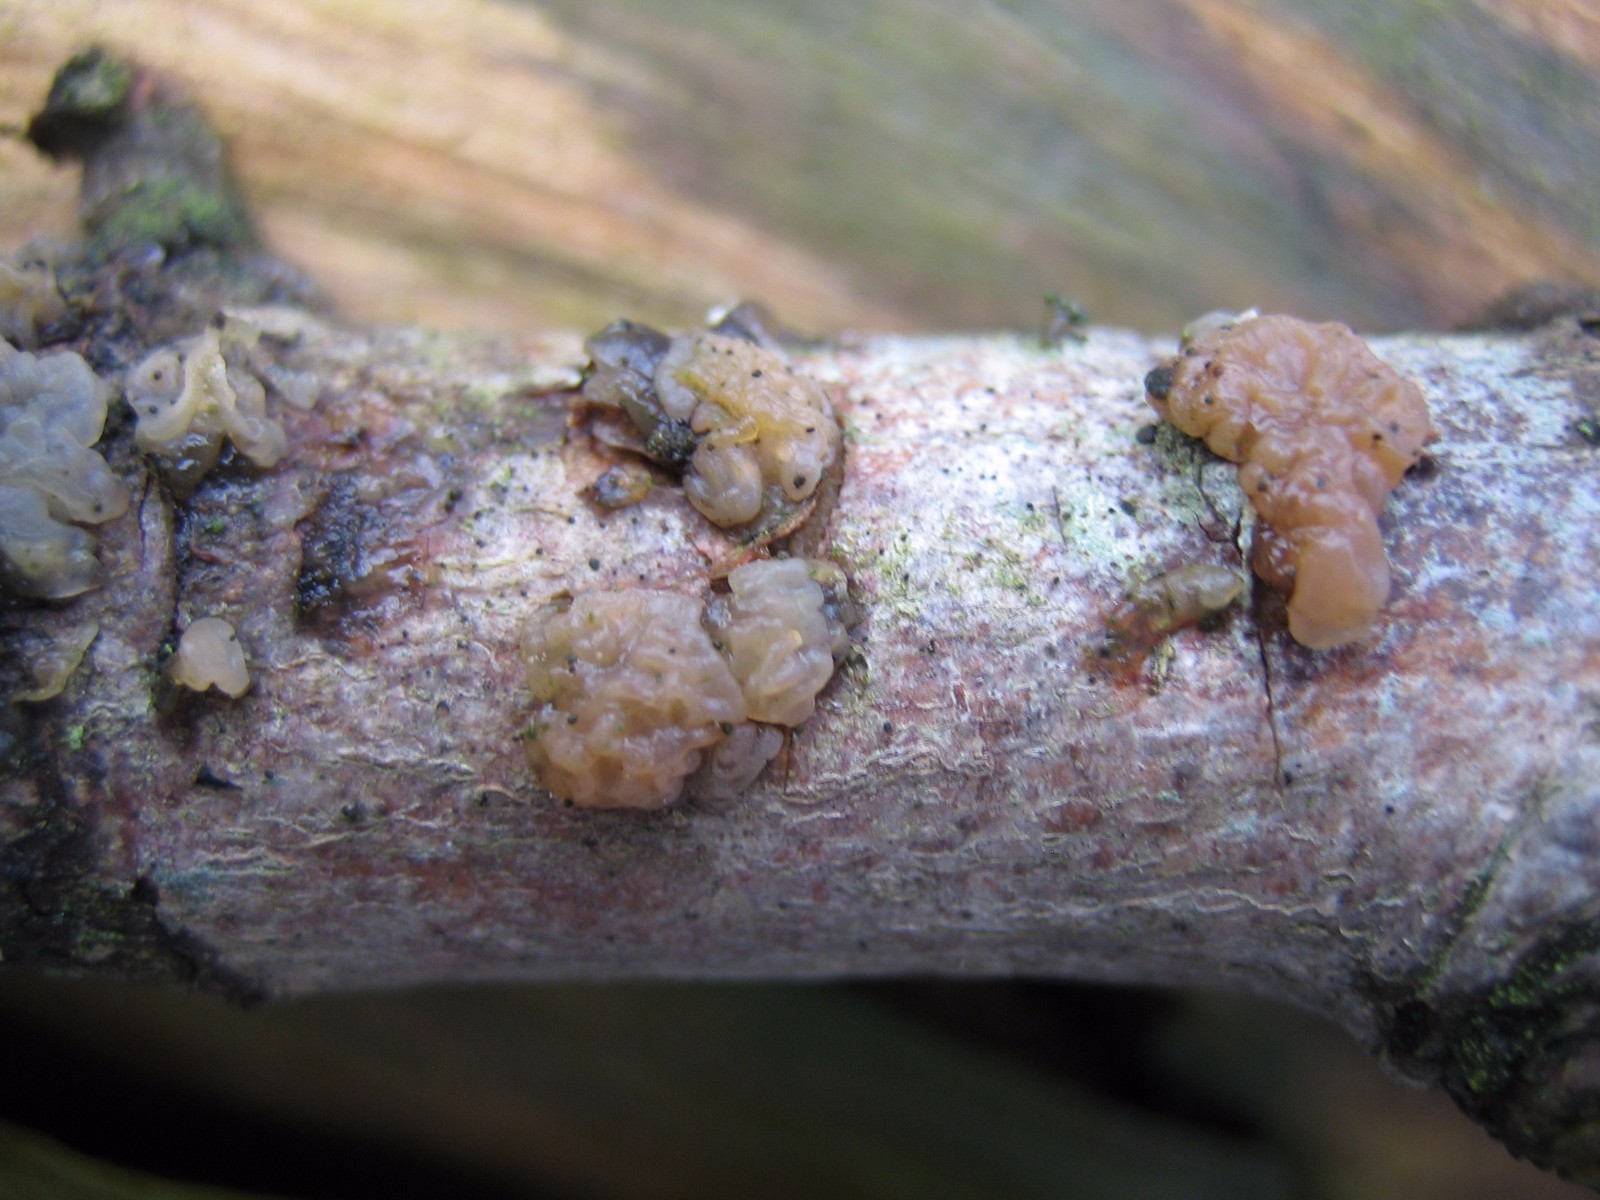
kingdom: Fungi
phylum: Basidiomycota
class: Agaricomycetes
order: Auriculariales
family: Hyaloriaceae
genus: Myxarium
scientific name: Myxarium
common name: bævretop
